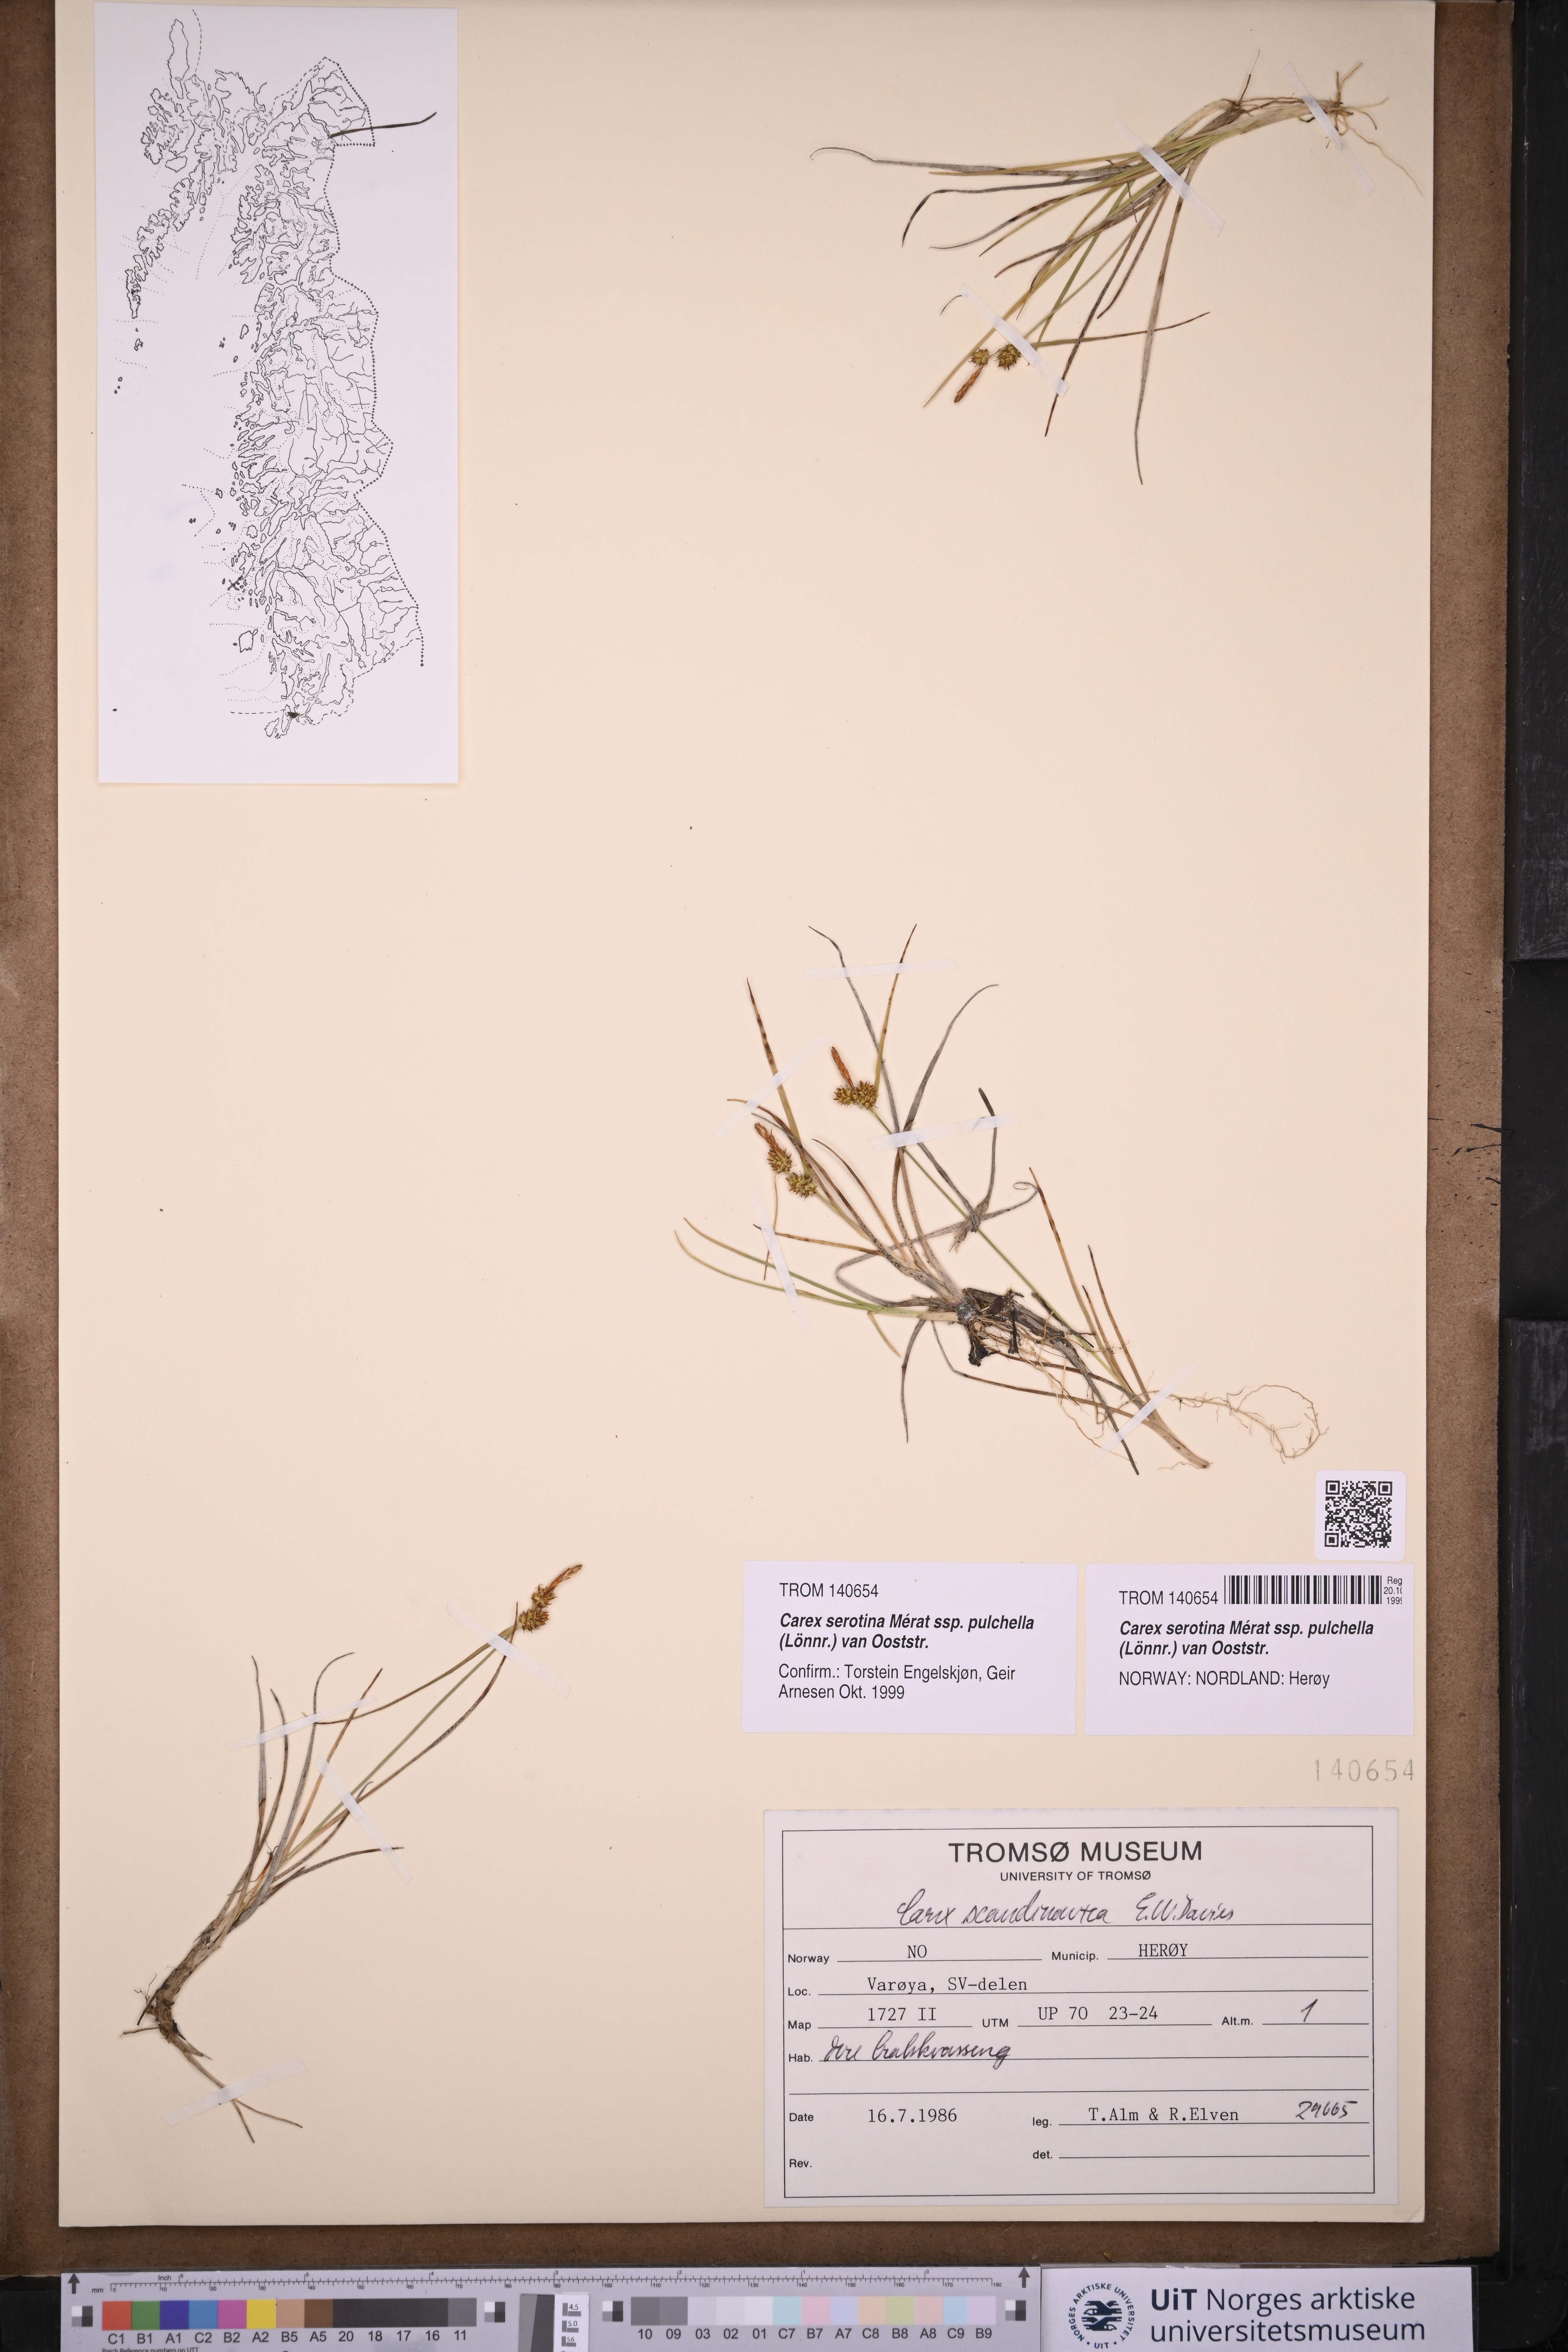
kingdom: Plantae
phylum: Tracheophyta
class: Liliopsida
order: Poales
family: Cyperaceae
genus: Carex
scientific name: Carex oederi
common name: Common & small-fruited yellow-sedge
